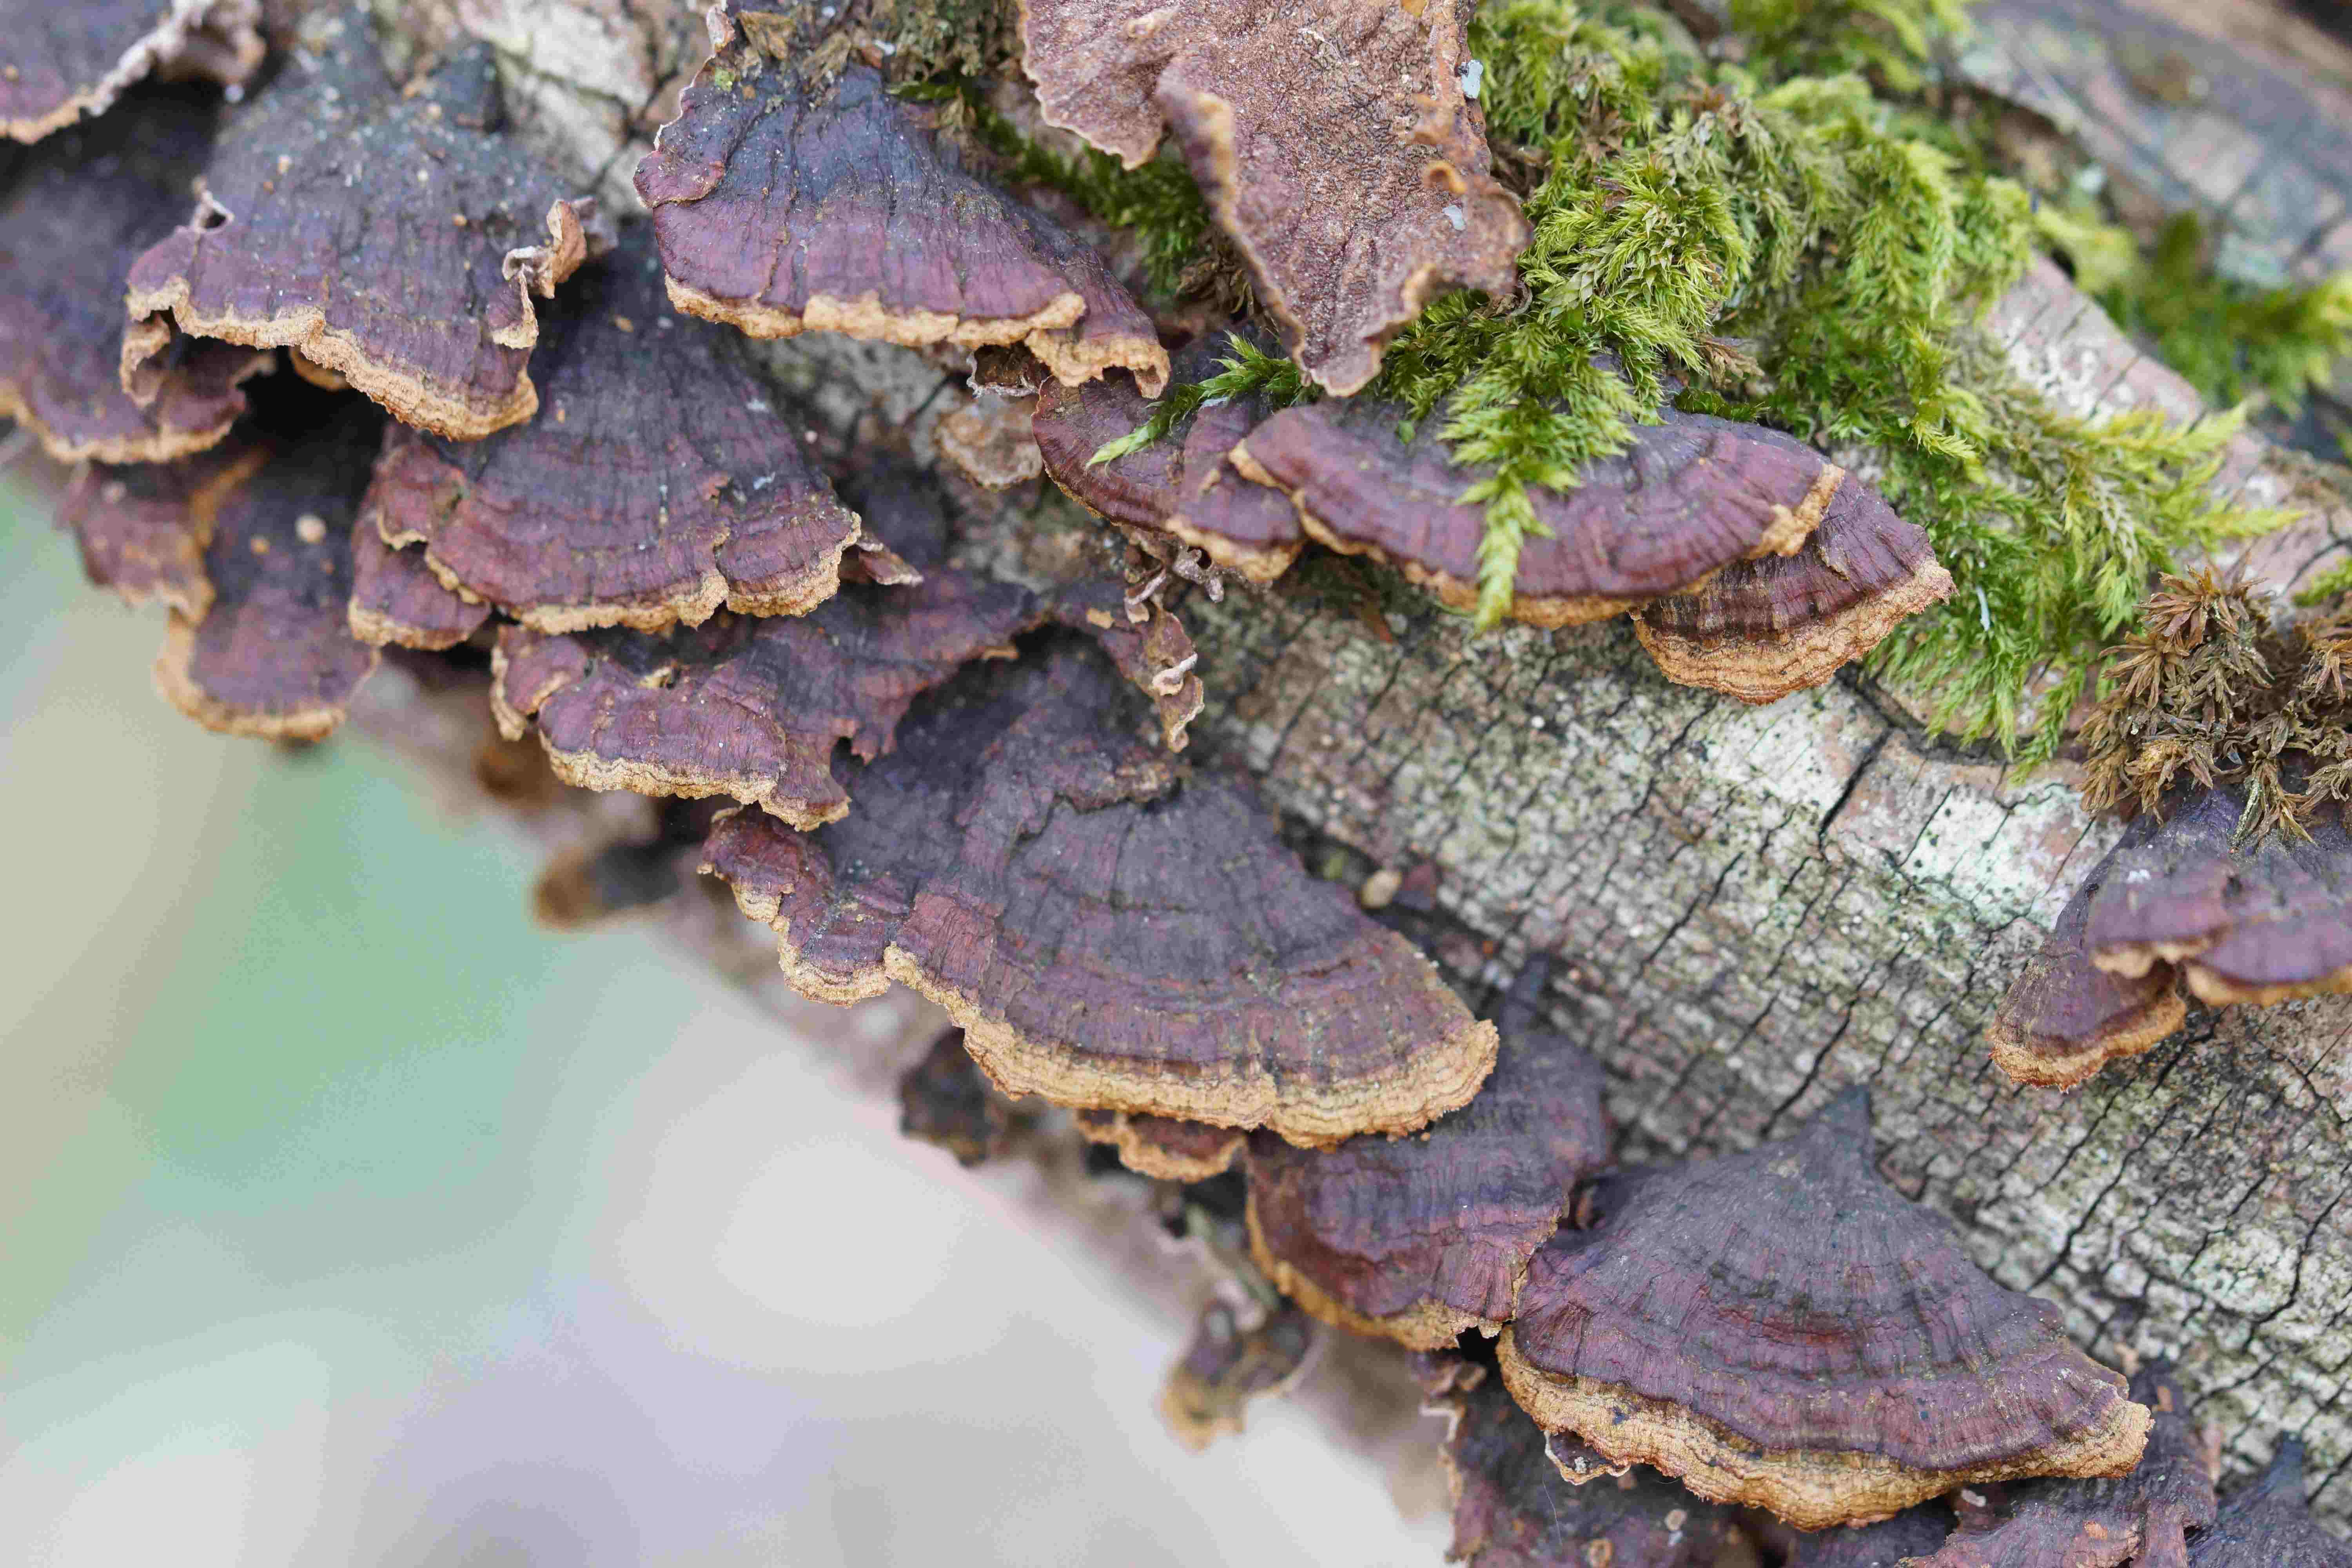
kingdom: Fungi
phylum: Basidiomycota
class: Agaricomycetes
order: Hymenochaetales
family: Hymenochaetaceae
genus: Hydnoporia
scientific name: Hydnoporia tabacina
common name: tobaksbrun ruslædersvamp
